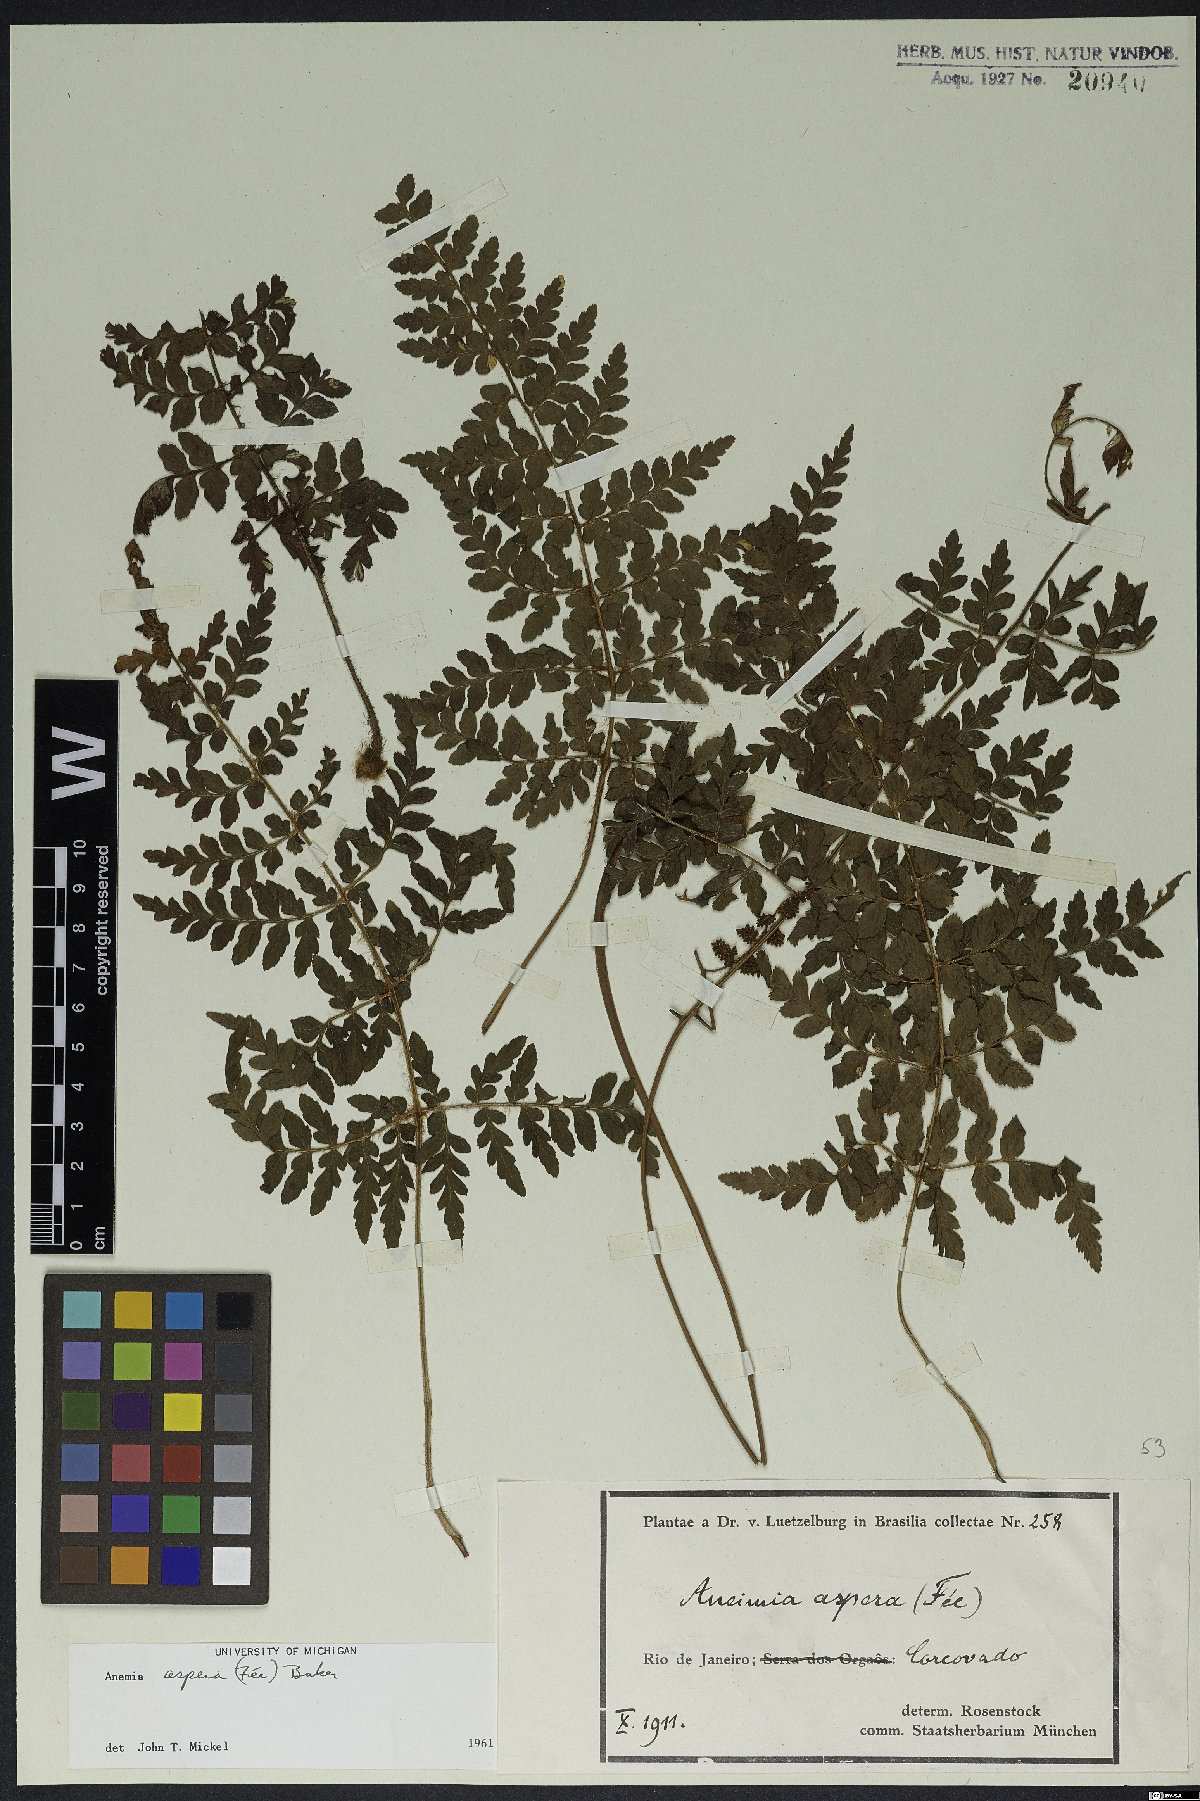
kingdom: Plantae
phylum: Tracheophyta
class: Polypodiopsida
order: Schizaeales
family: Anemiaceae
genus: Anemia
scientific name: Anemia aspera
